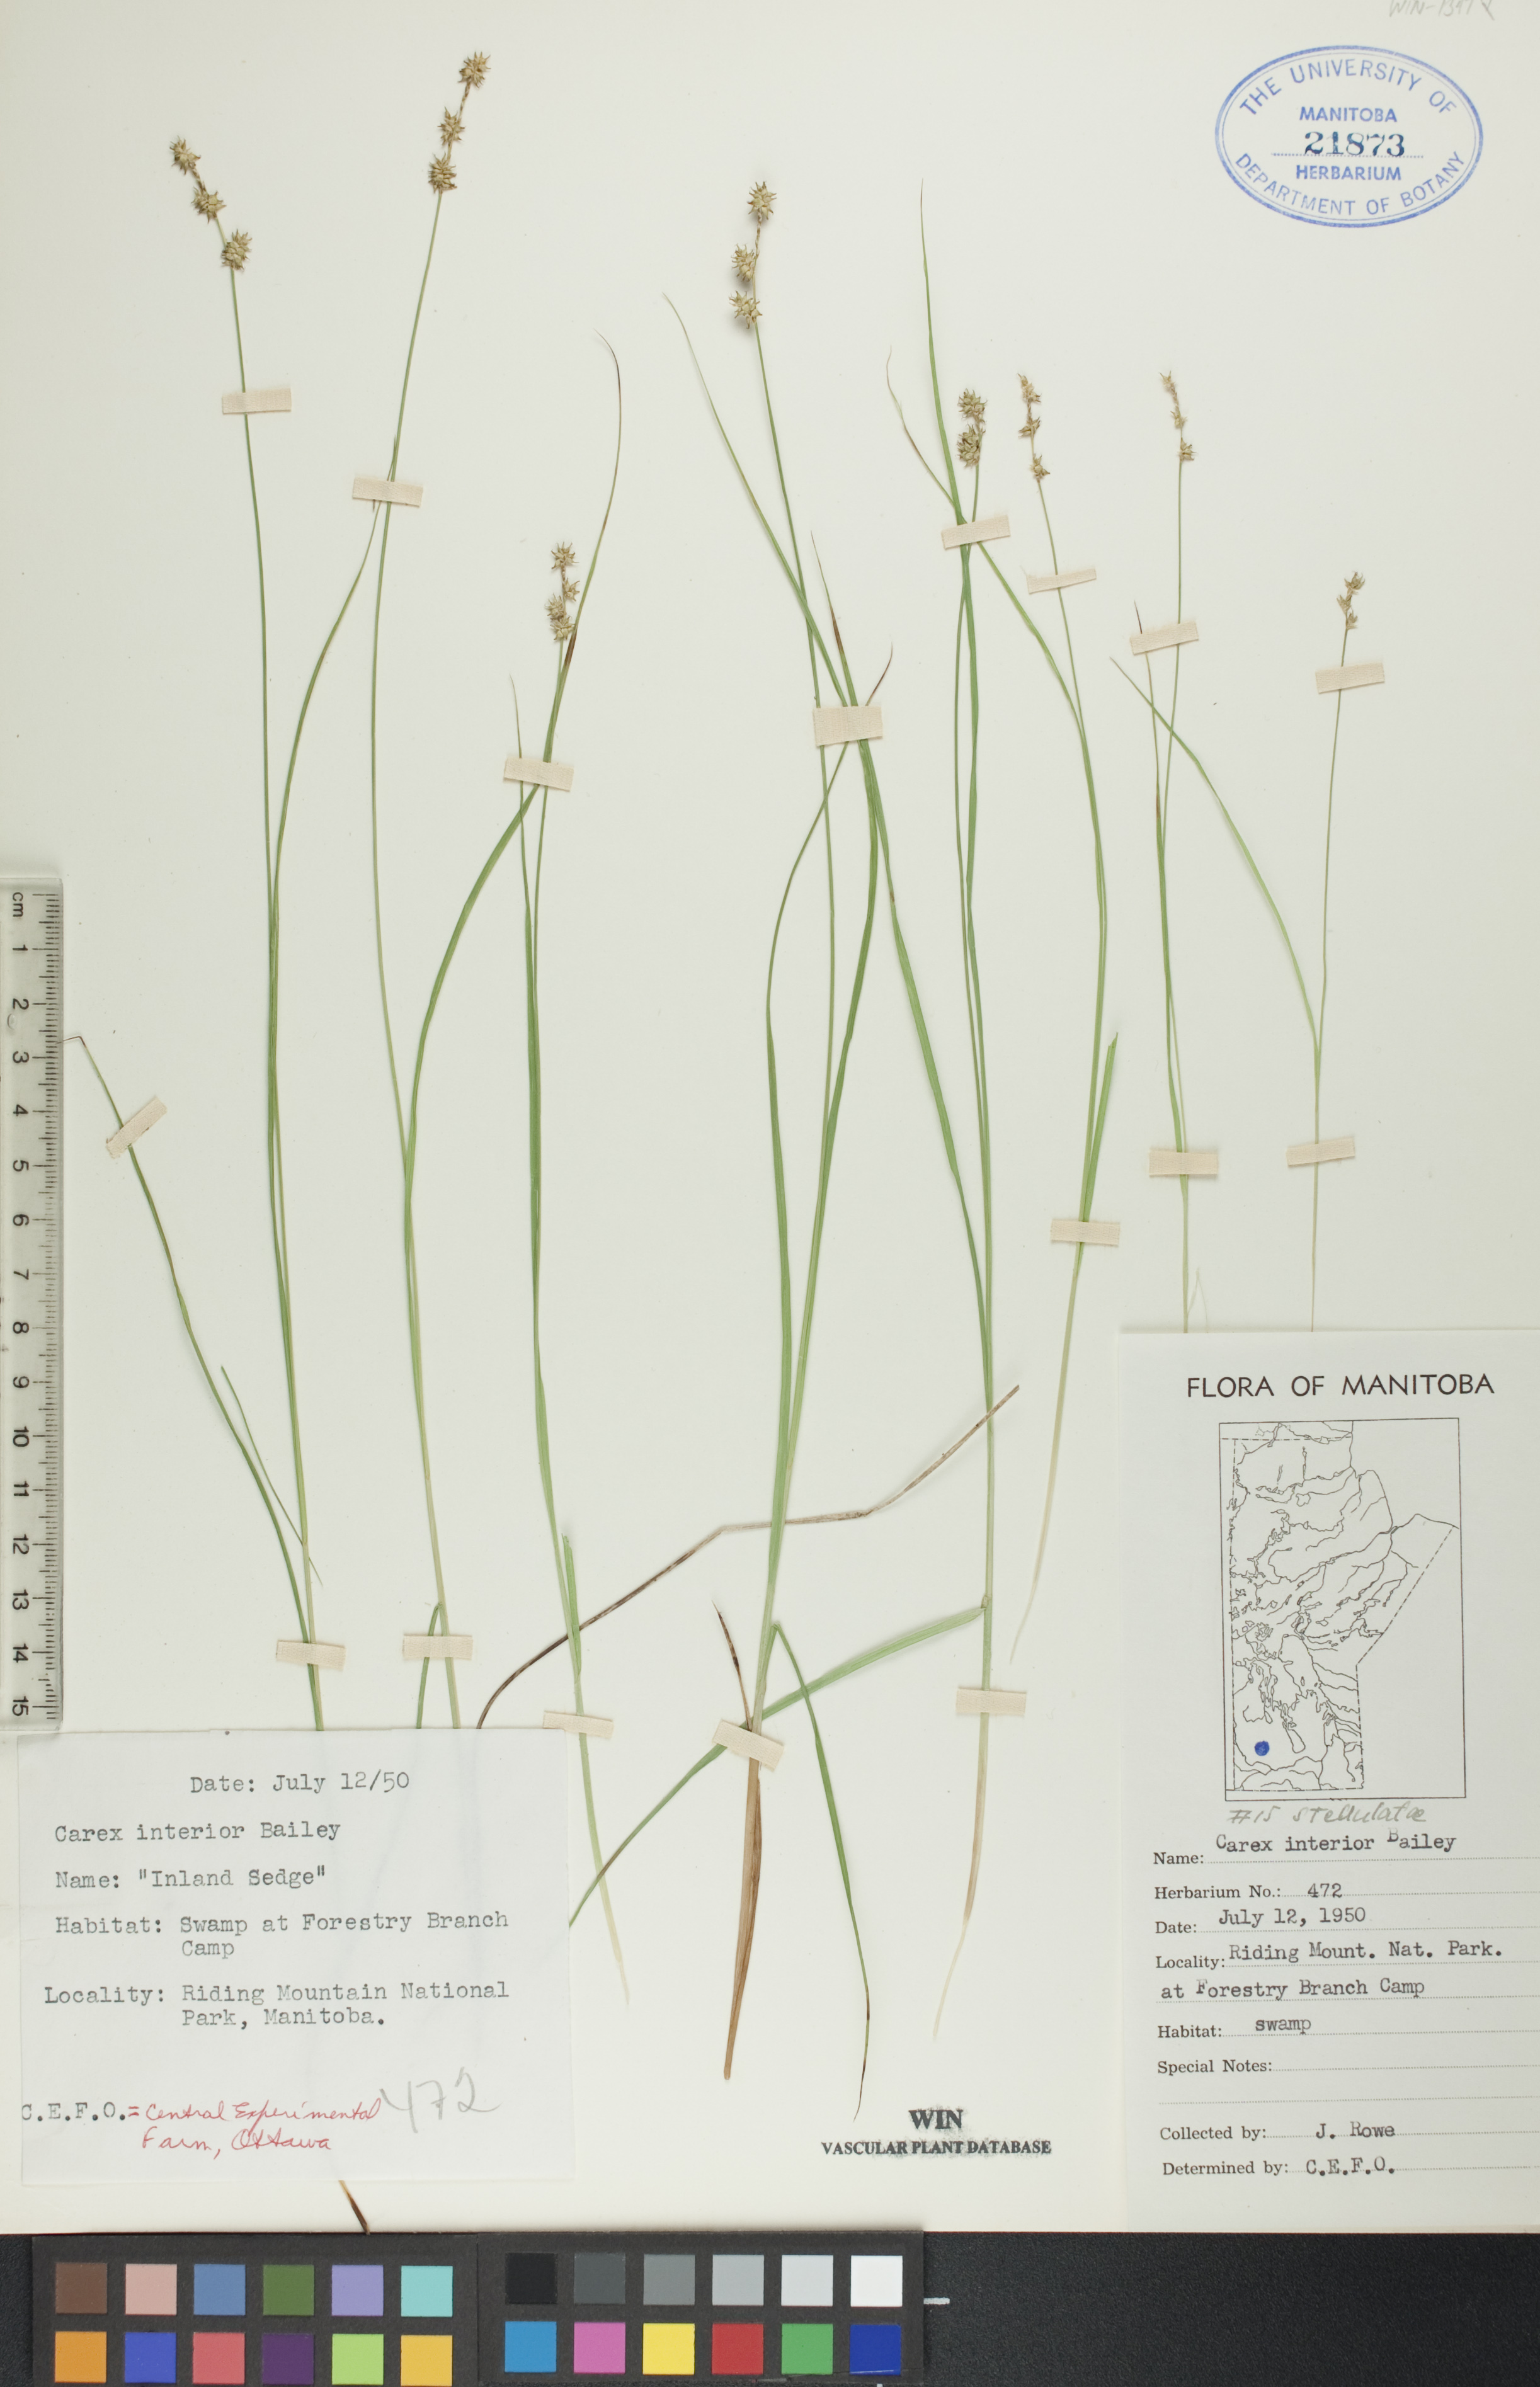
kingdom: Plantae
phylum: Tracheophyta
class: Liliopsida
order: Poales
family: Cyperaceae
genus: Carex
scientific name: Carex interior
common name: Inland sedge
